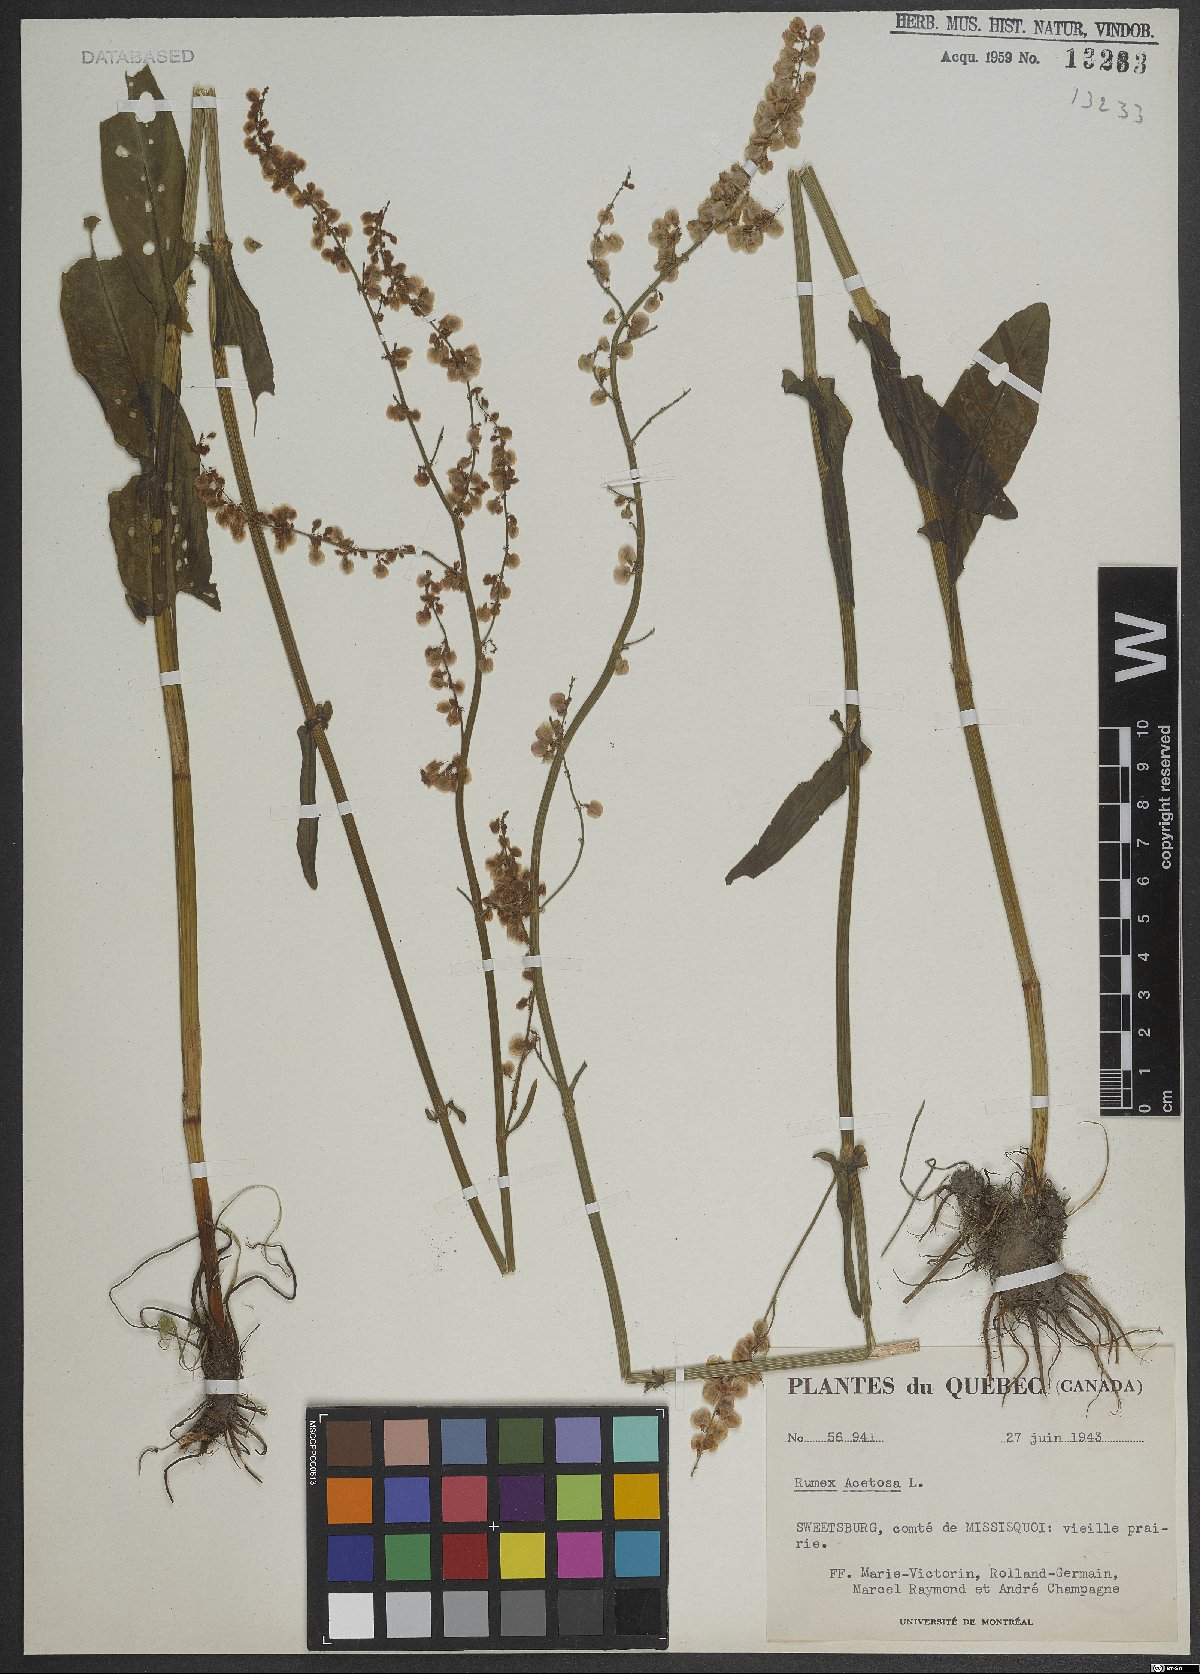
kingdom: Plantae
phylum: Tracheophyta
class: Magnoliopsida
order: Caryophyllales
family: Polygonaceae
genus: Rumex
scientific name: Rumex acetosa
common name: Garden sorrel
